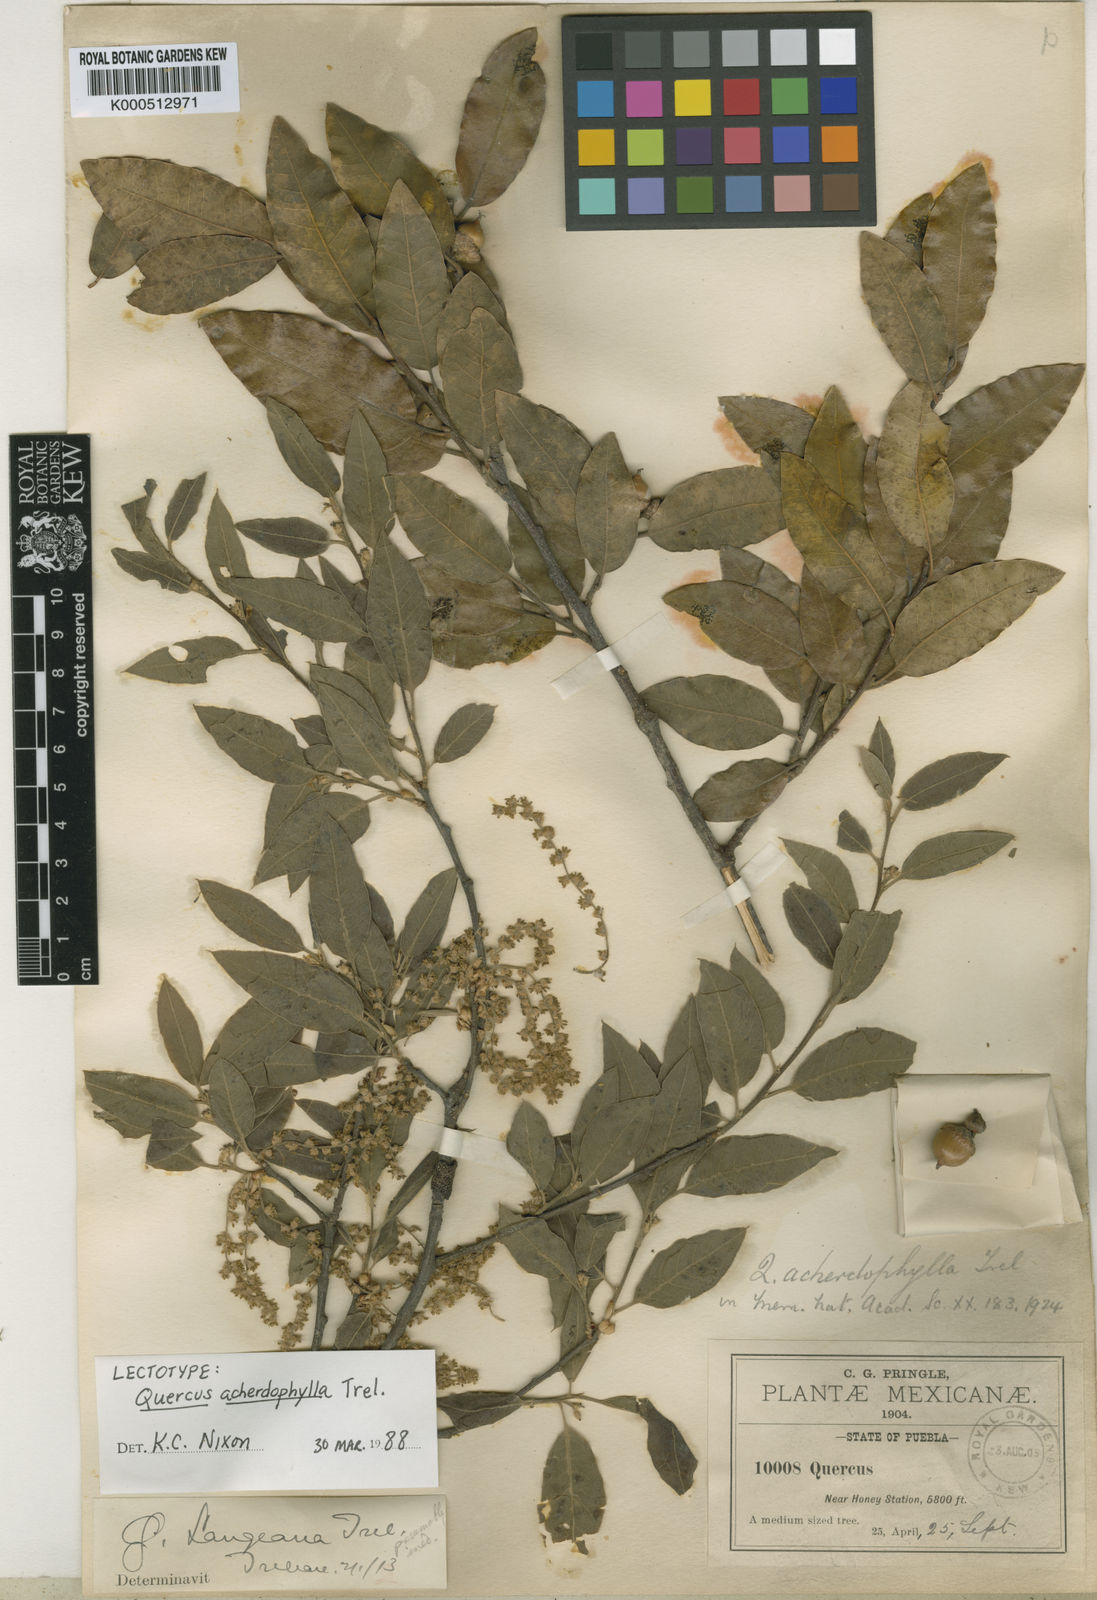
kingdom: Plantae
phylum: Tracheophyta
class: Magnoliopsida
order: Fagales
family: Fagaceae
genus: Quercus
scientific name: Quercus acherdophylla
